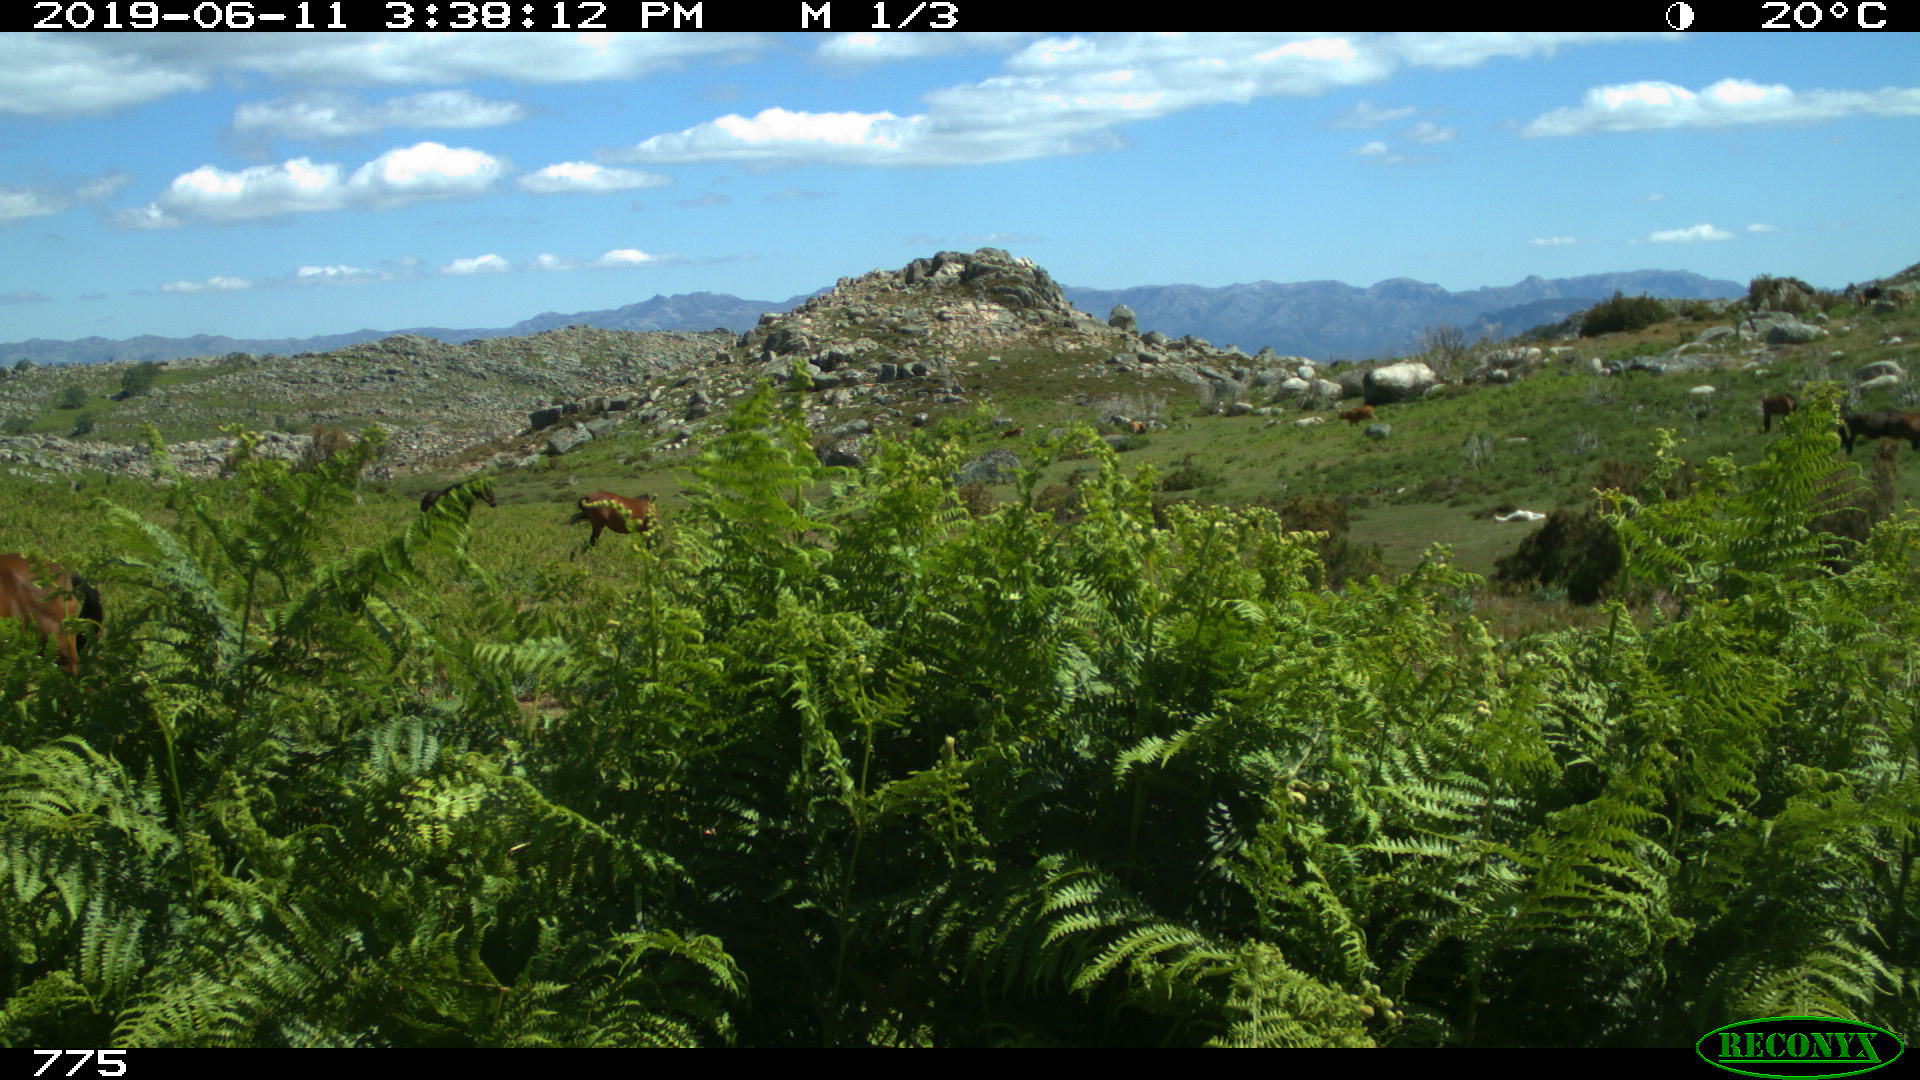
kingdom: Animalia
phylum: Chordata
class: Mammalia
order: Perissodactyla
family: Equidae
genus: Equus
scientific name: Equus caballus
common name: Horse
